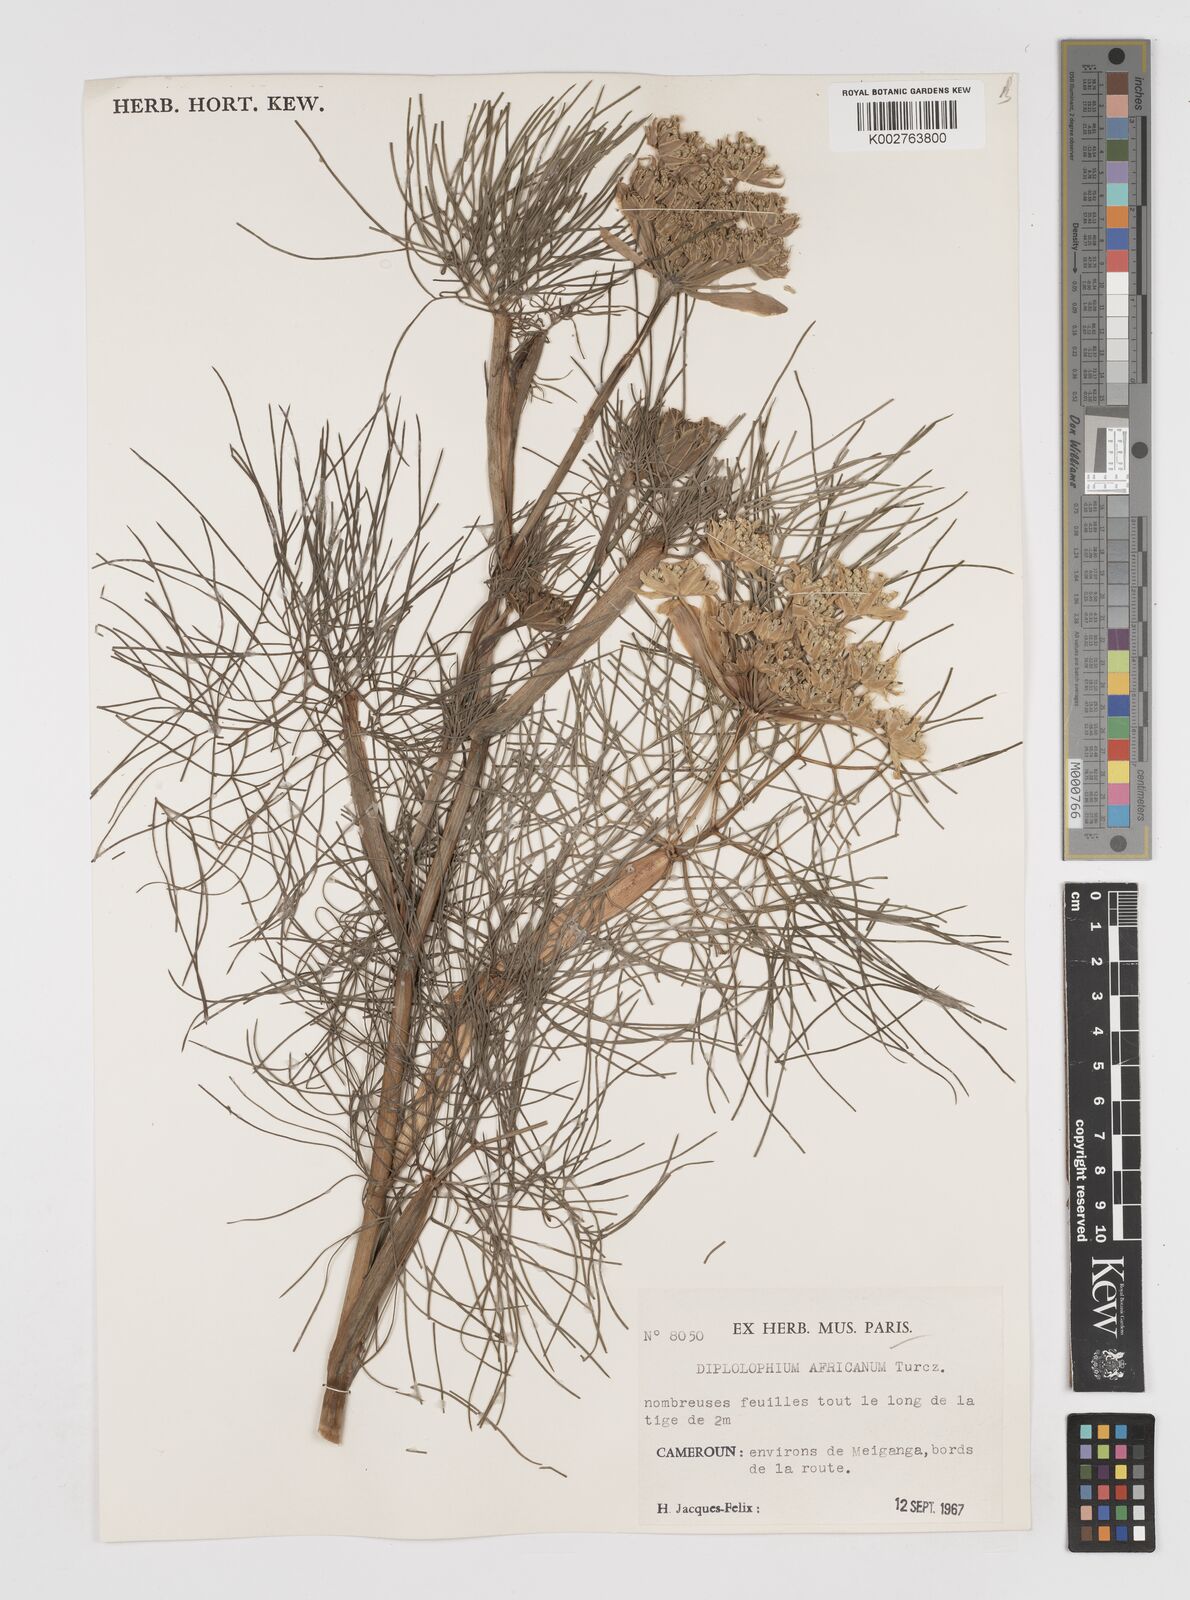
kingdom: Plantae
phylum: Tracheophyta
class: Magnoliopsida
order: Apiales
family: Apiaceae
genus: Diplolophium
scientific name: Diplolophium africanum
